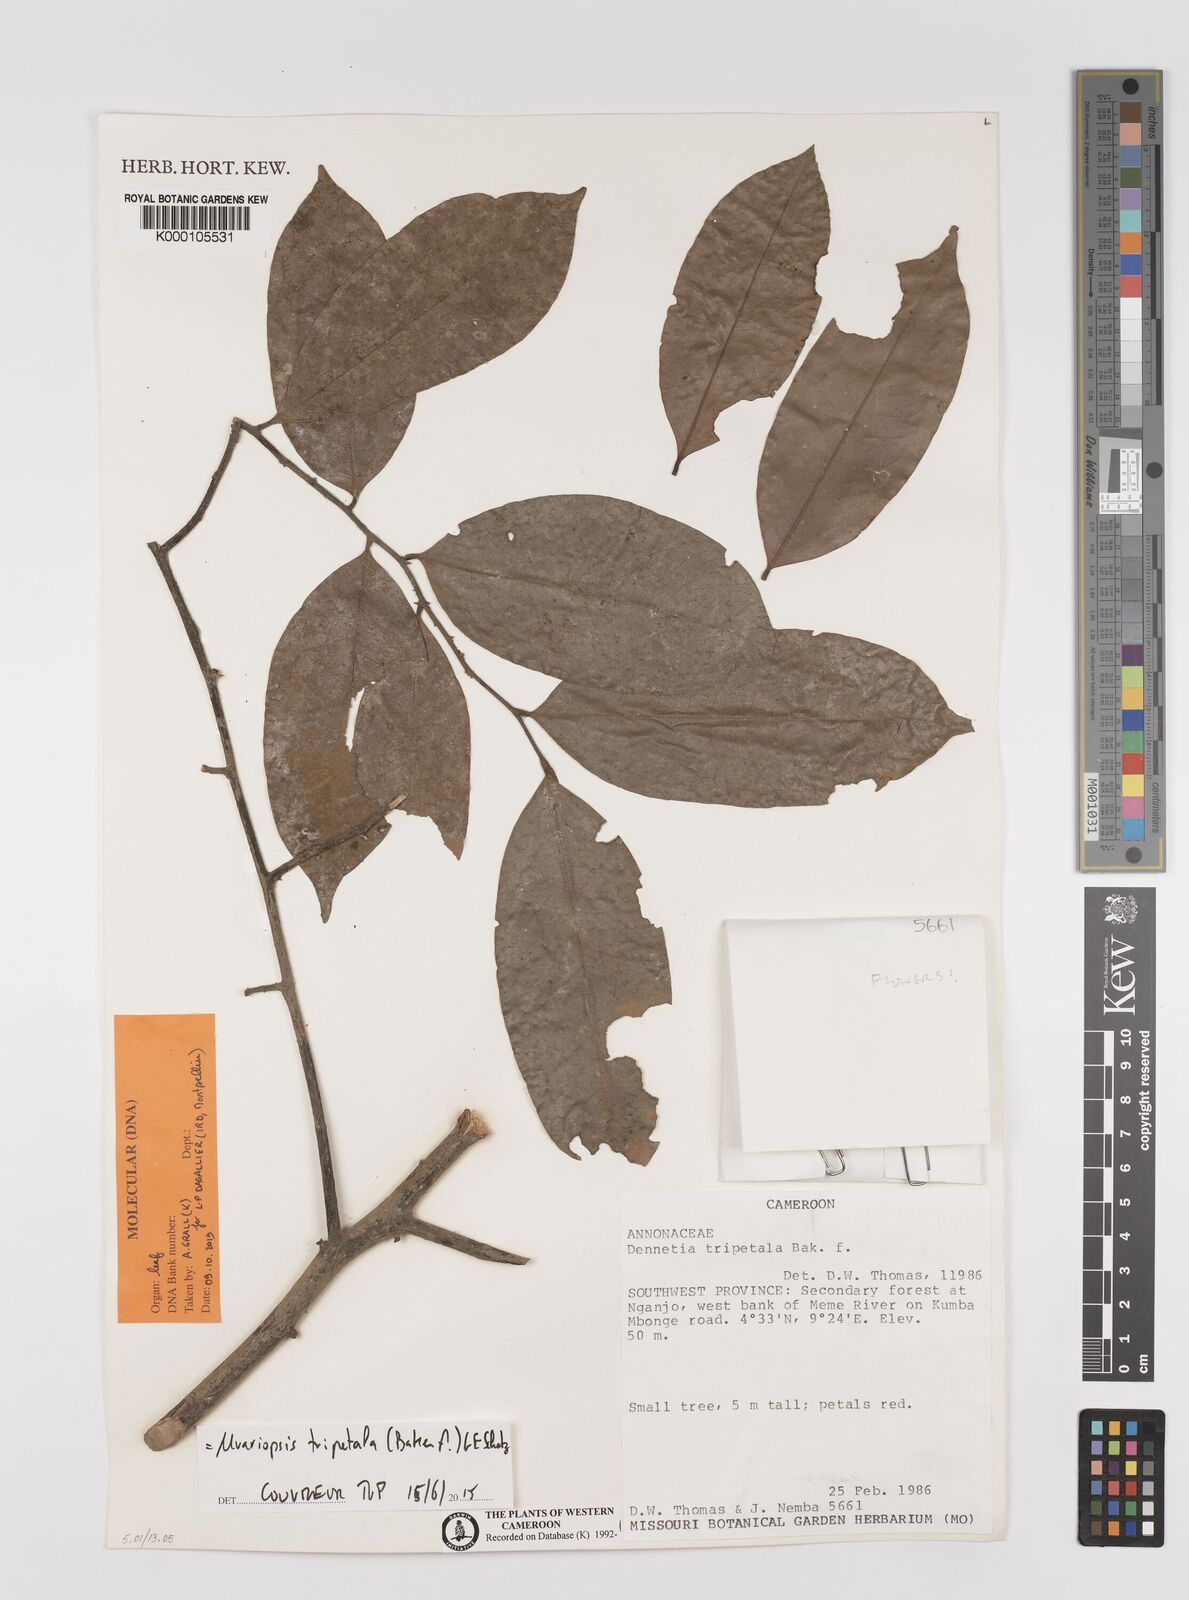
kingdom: Plantae
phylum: Tracheophyta
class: Magnoliopsida
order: Magnoliales
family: Annonaceae
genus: Uvariopsis
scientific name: Uvariopsis tripetala
